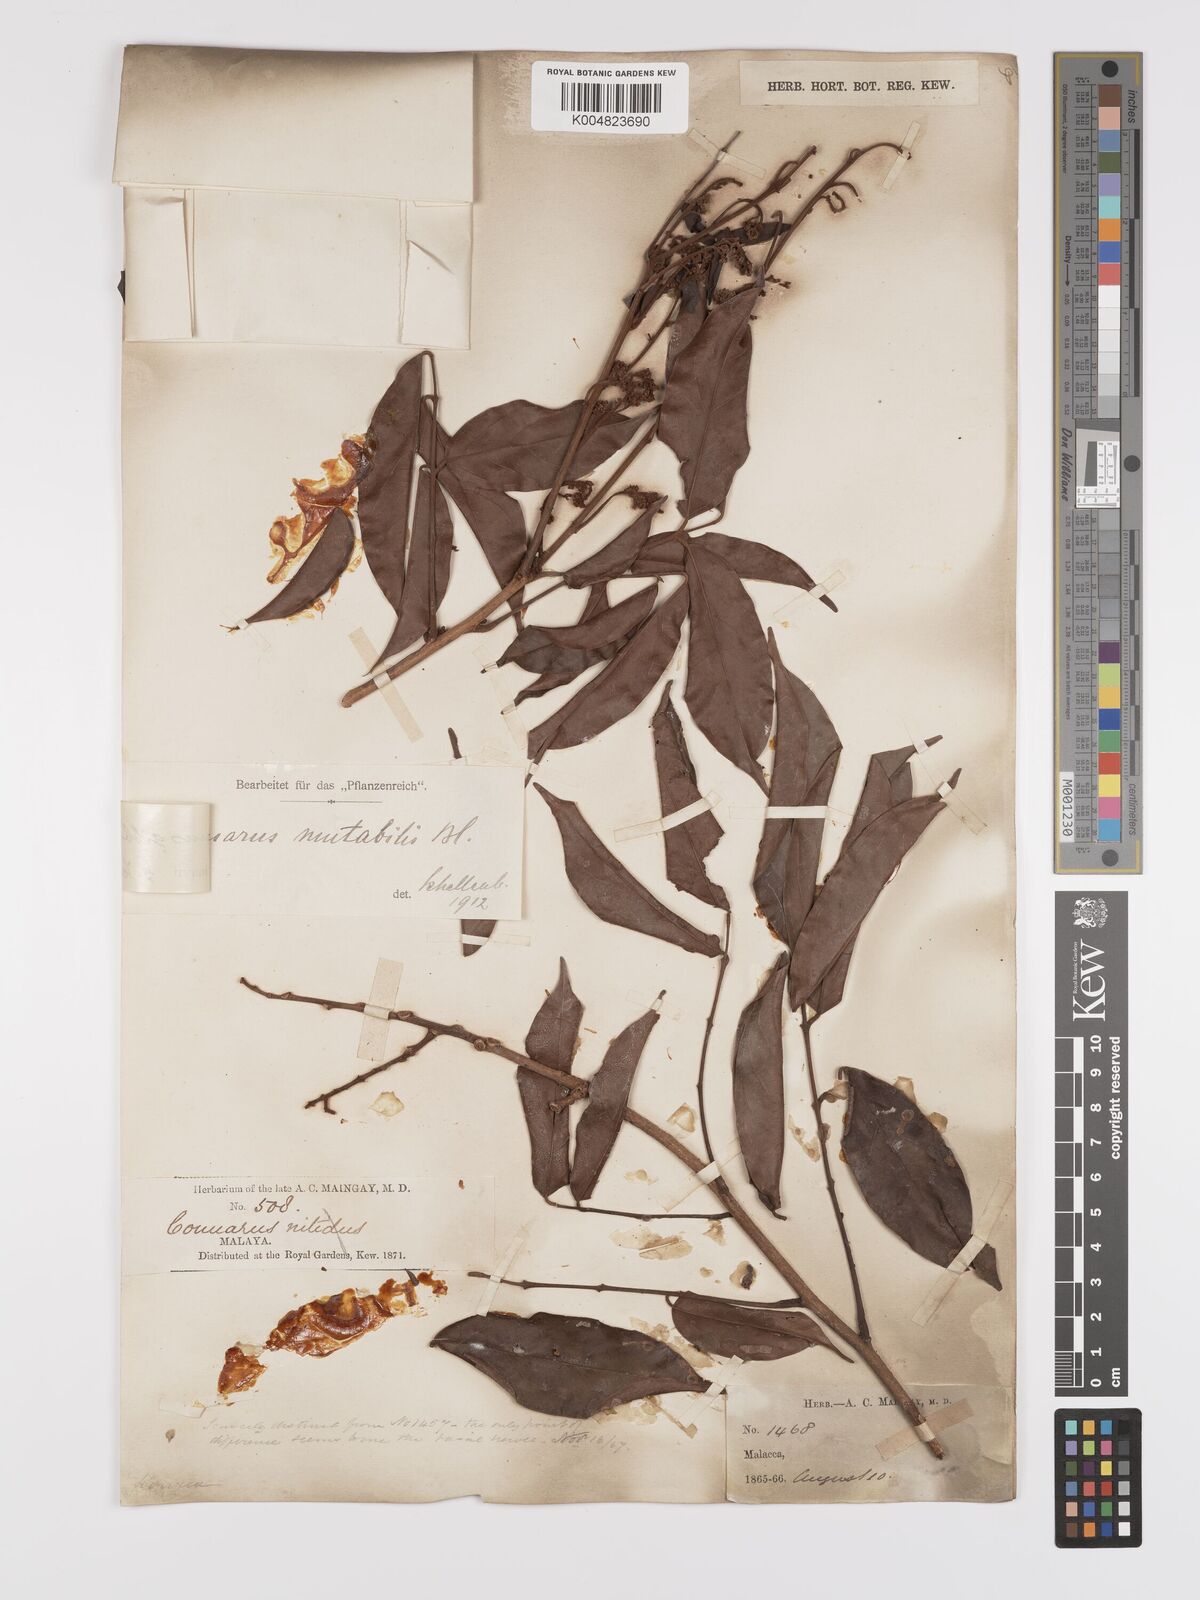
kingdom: Plantae
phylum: Tracheophyta
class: Magnoliopsida
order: Oxalidales
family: Connaraceae
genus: Connarus
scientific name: Connarus semidecandrus
